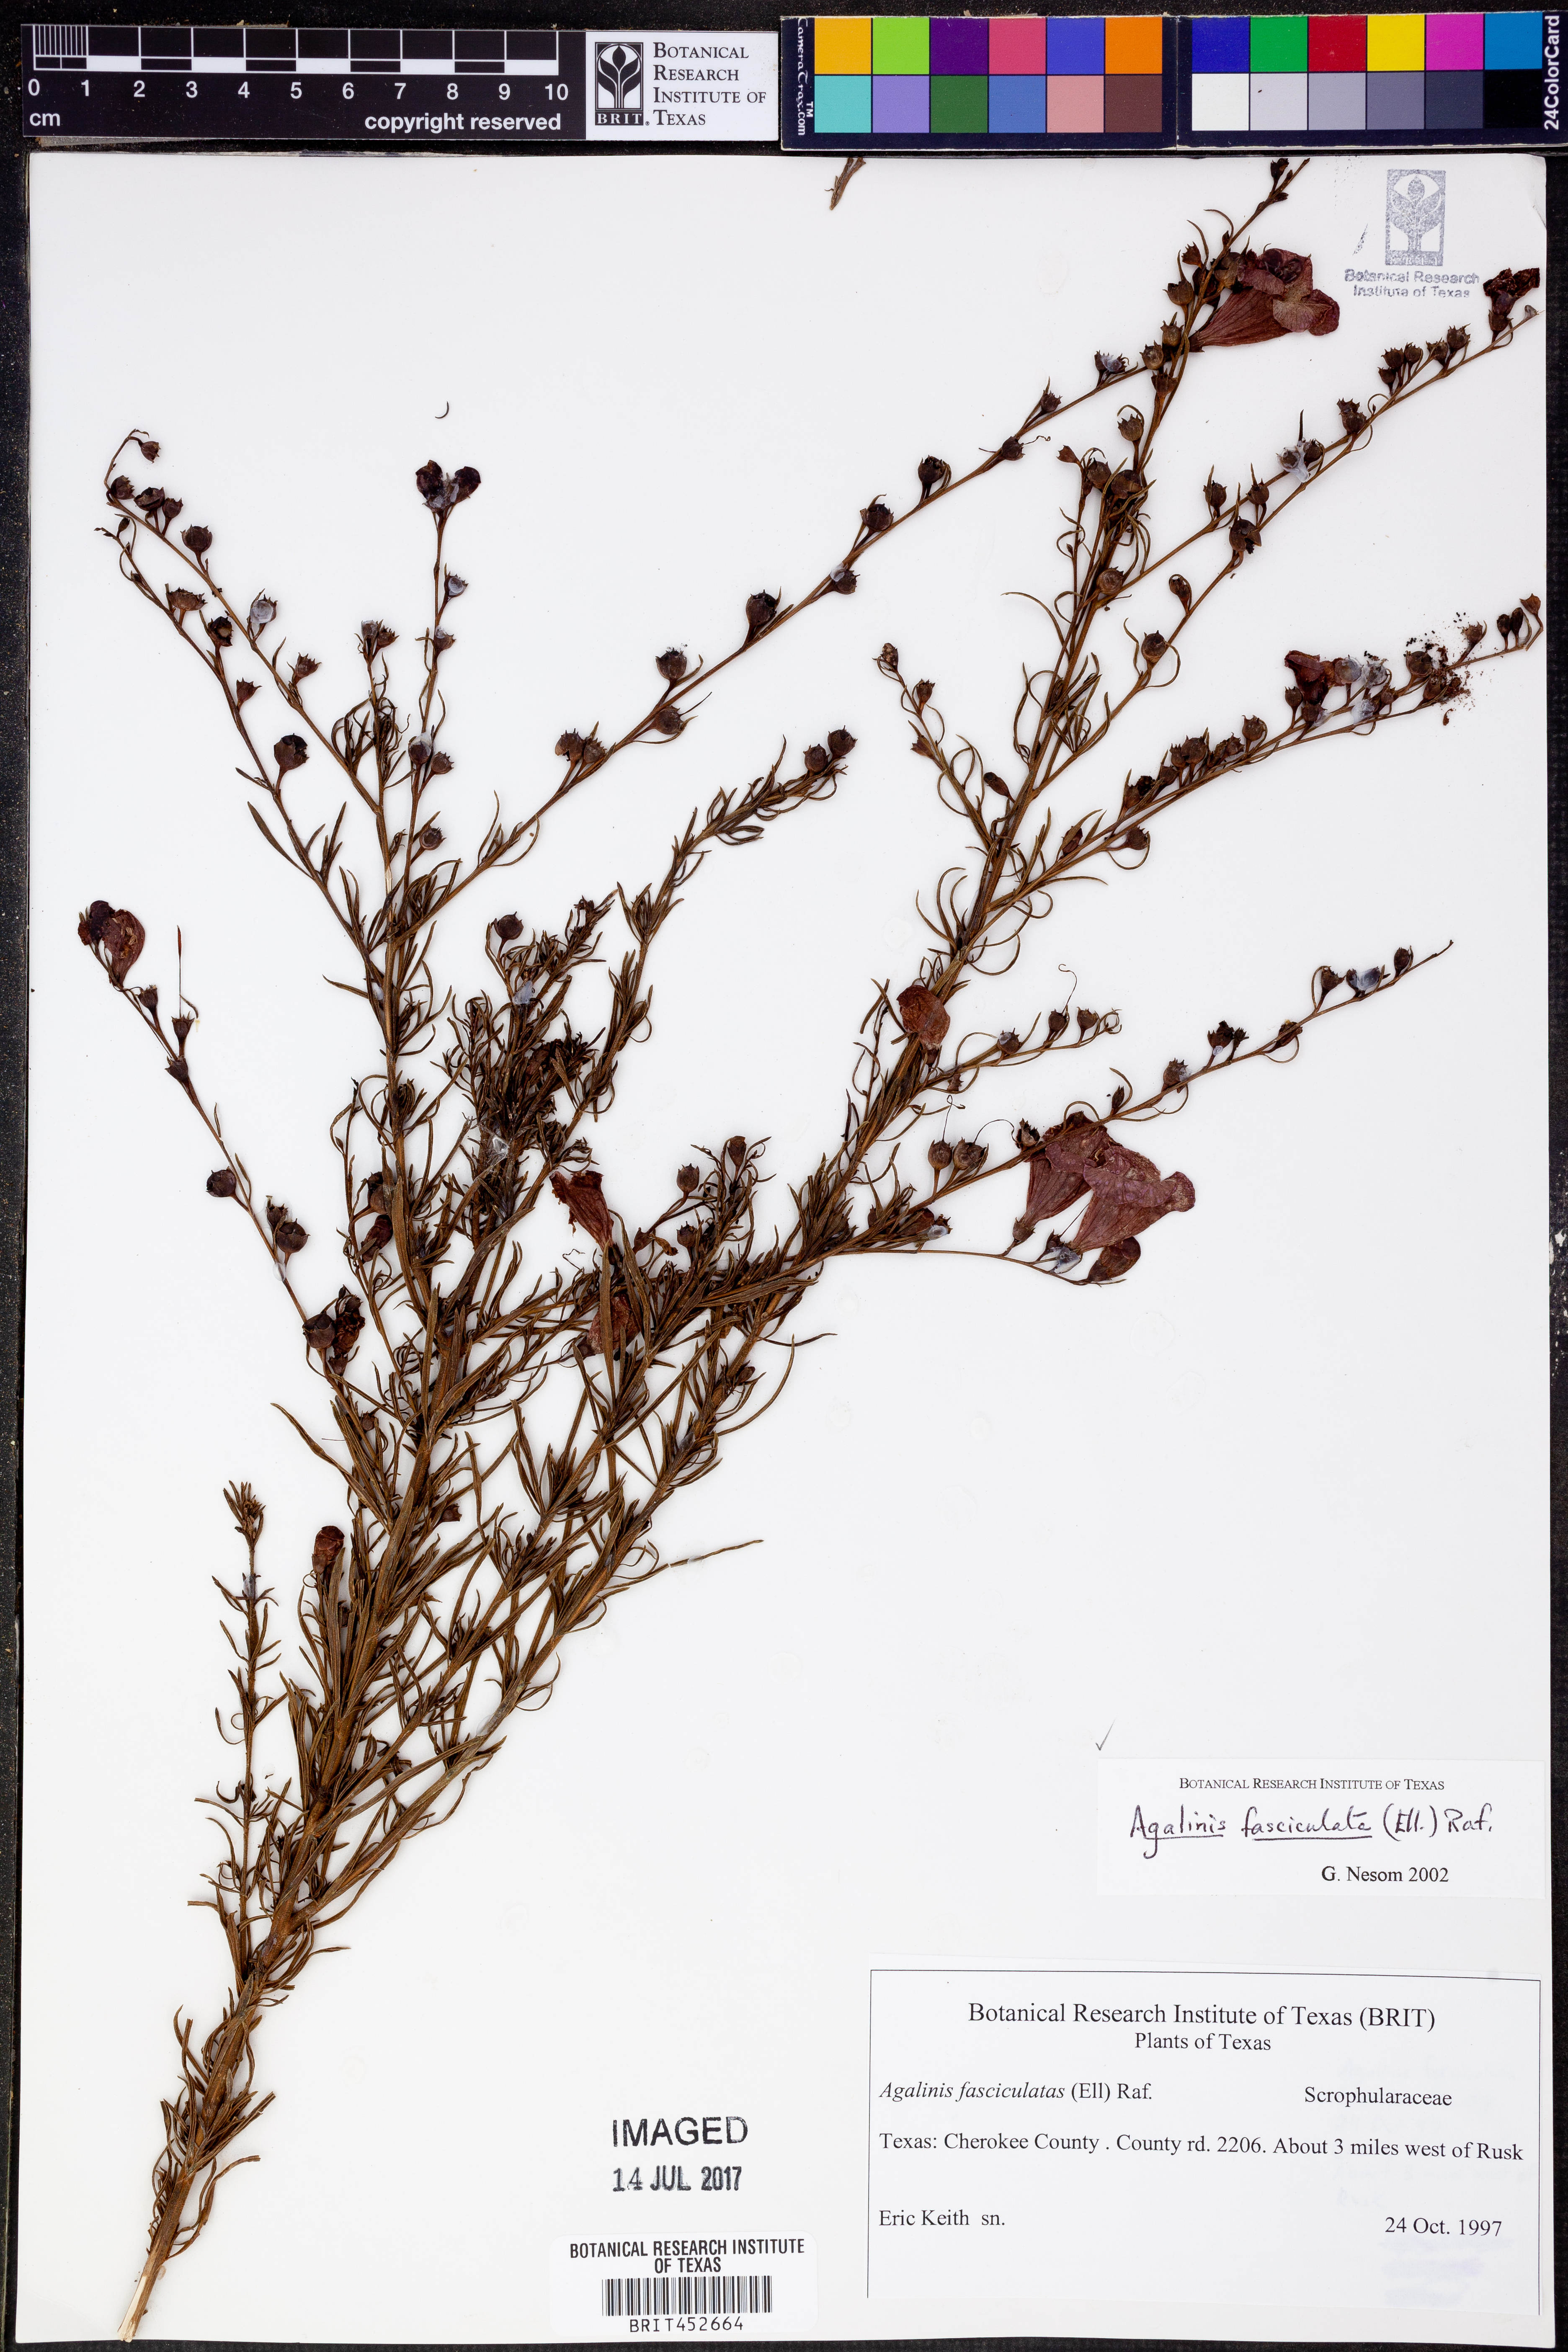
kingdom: Plantae
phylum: Tracheophyta
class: Magnoliopsida
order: Lamiales
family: Orobanchaceae
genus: Agalinis
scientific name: Agalinis fasciculata
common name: Beach false foxglove
